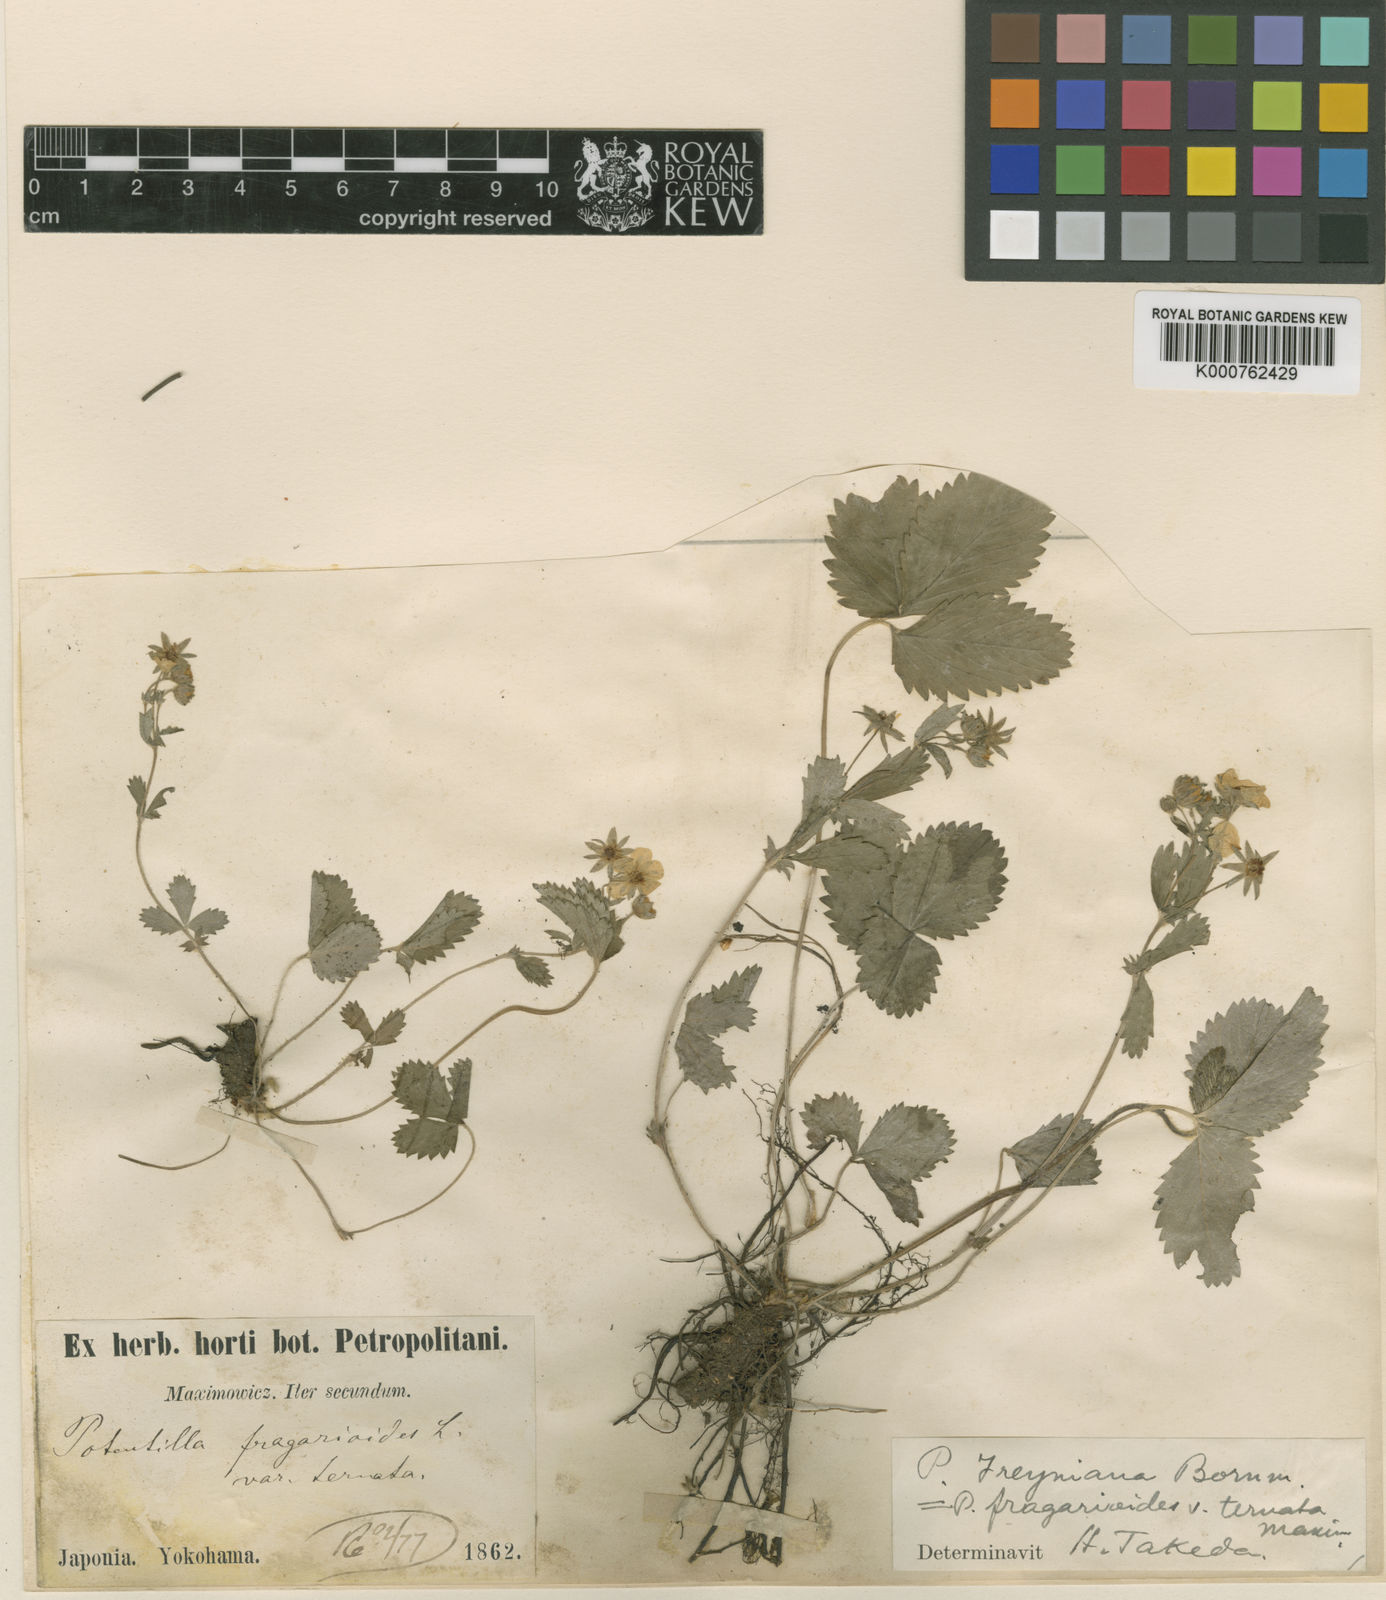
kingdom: Plantae
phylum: Tracheophyta
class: Magnoliopsida
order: Rosales
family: Rosaceae
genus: Potentilla
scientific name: Potentilla freyniana
